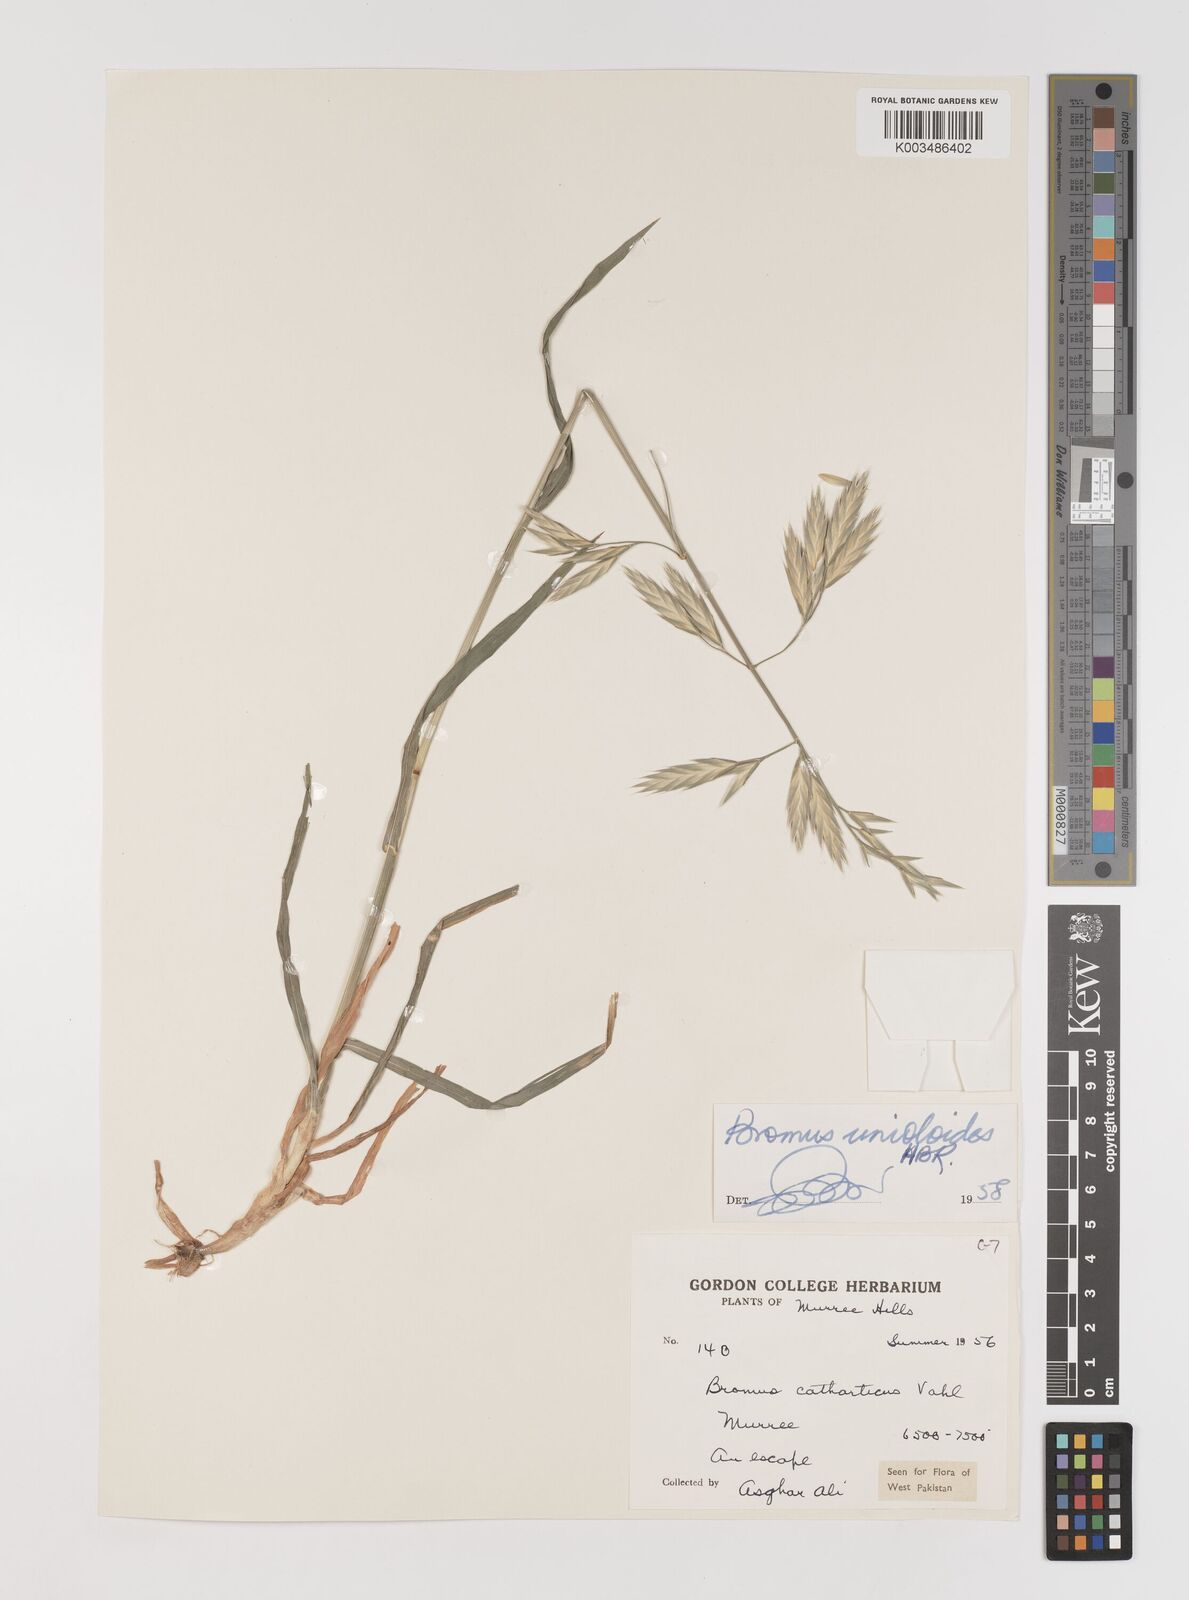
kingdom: Plantae
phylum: Tracheophyta
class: Liliopsida
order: Poales
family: Poaceae
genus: Bromus
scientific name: Bromus catharticus
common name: Rescuegrass
